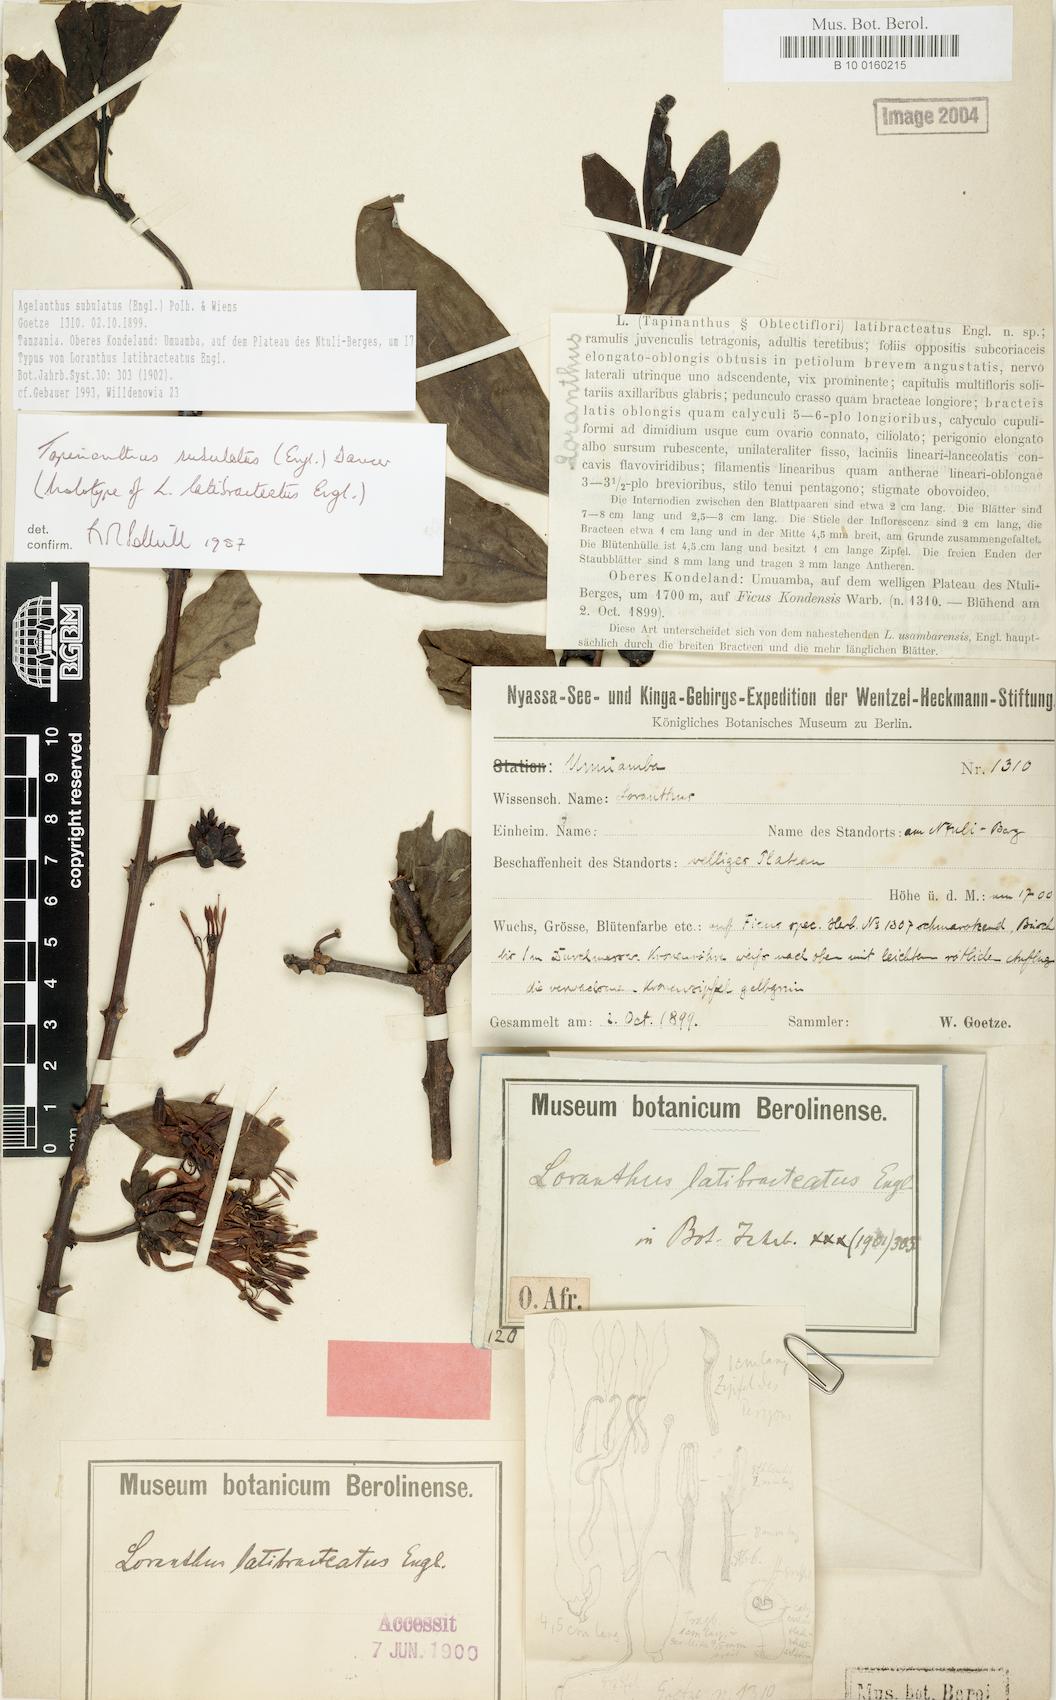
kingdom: Plantae
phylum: Tracheophyta
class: Magnoliopsida
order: Santalales
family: Loranthaceae
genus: Agelanthus
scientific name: Agelanthus subulatus
